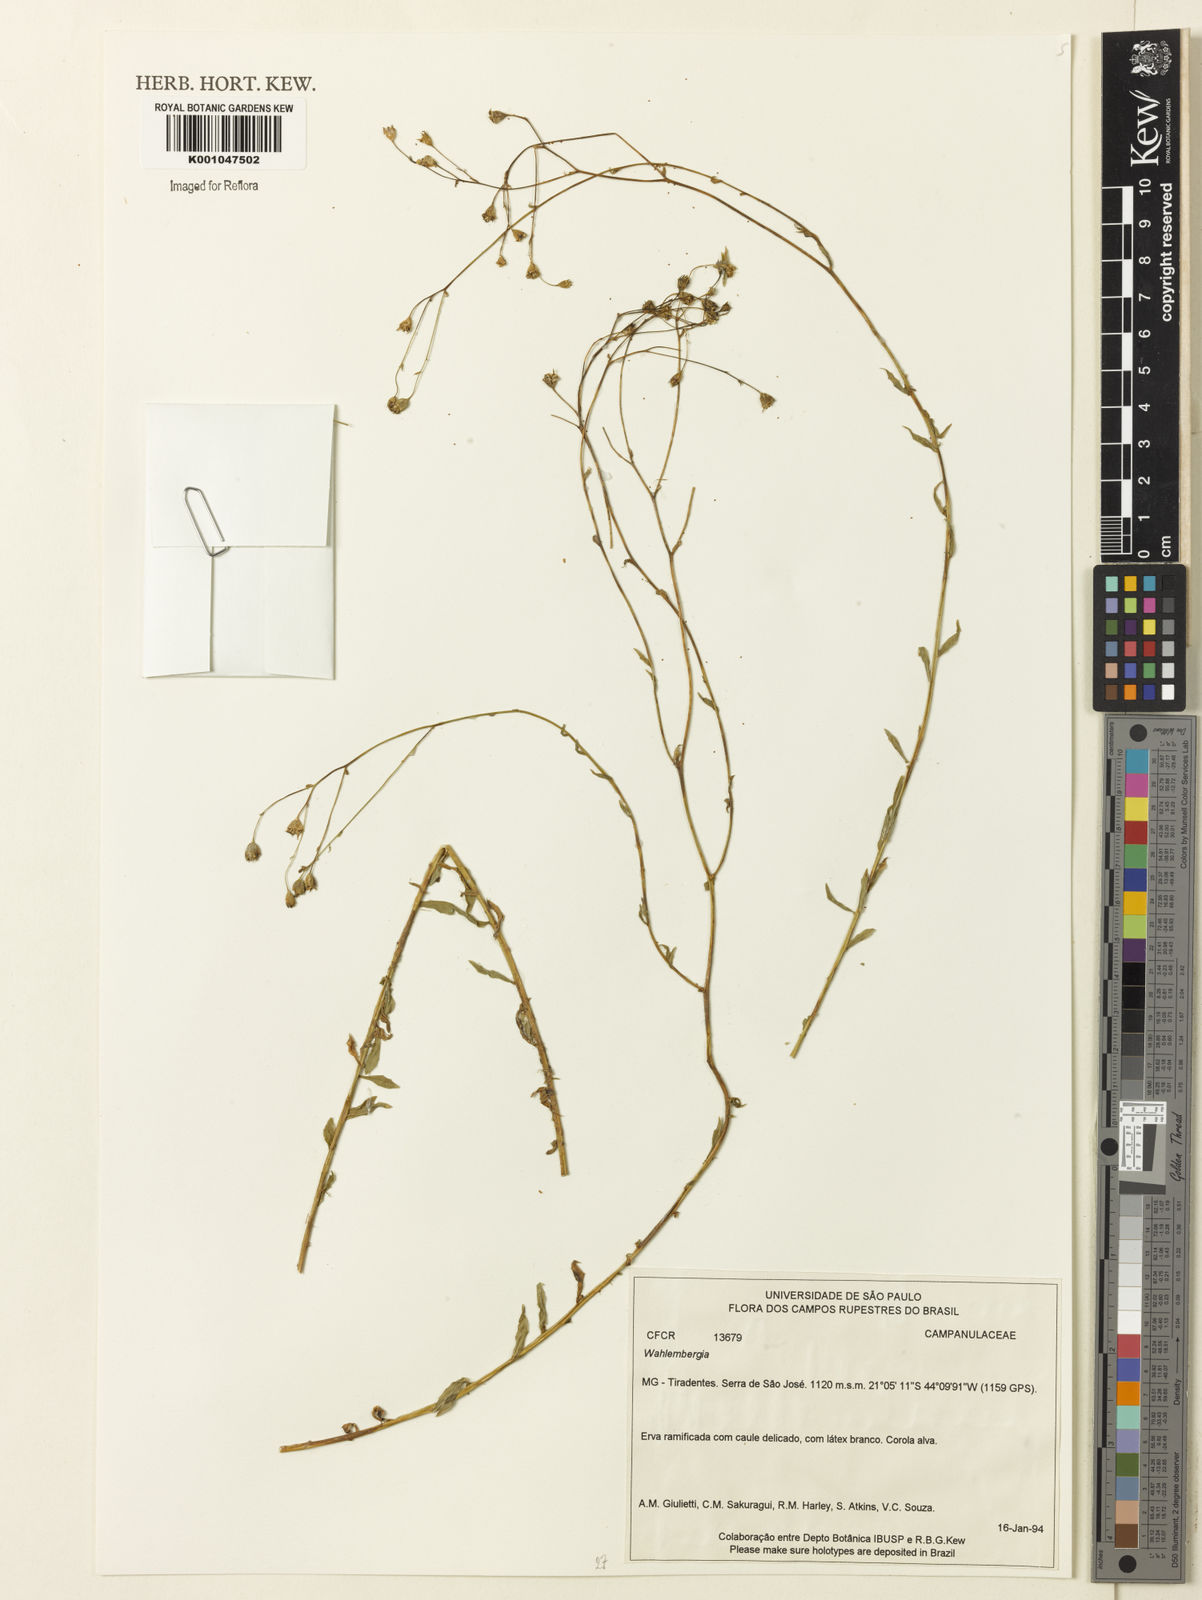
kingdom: Plantae
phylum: Tracheophyta
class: Magnoliopsida
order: Asterales
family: Campanulaceae
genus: Wahlenbergia
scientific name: Wahlenbergia
